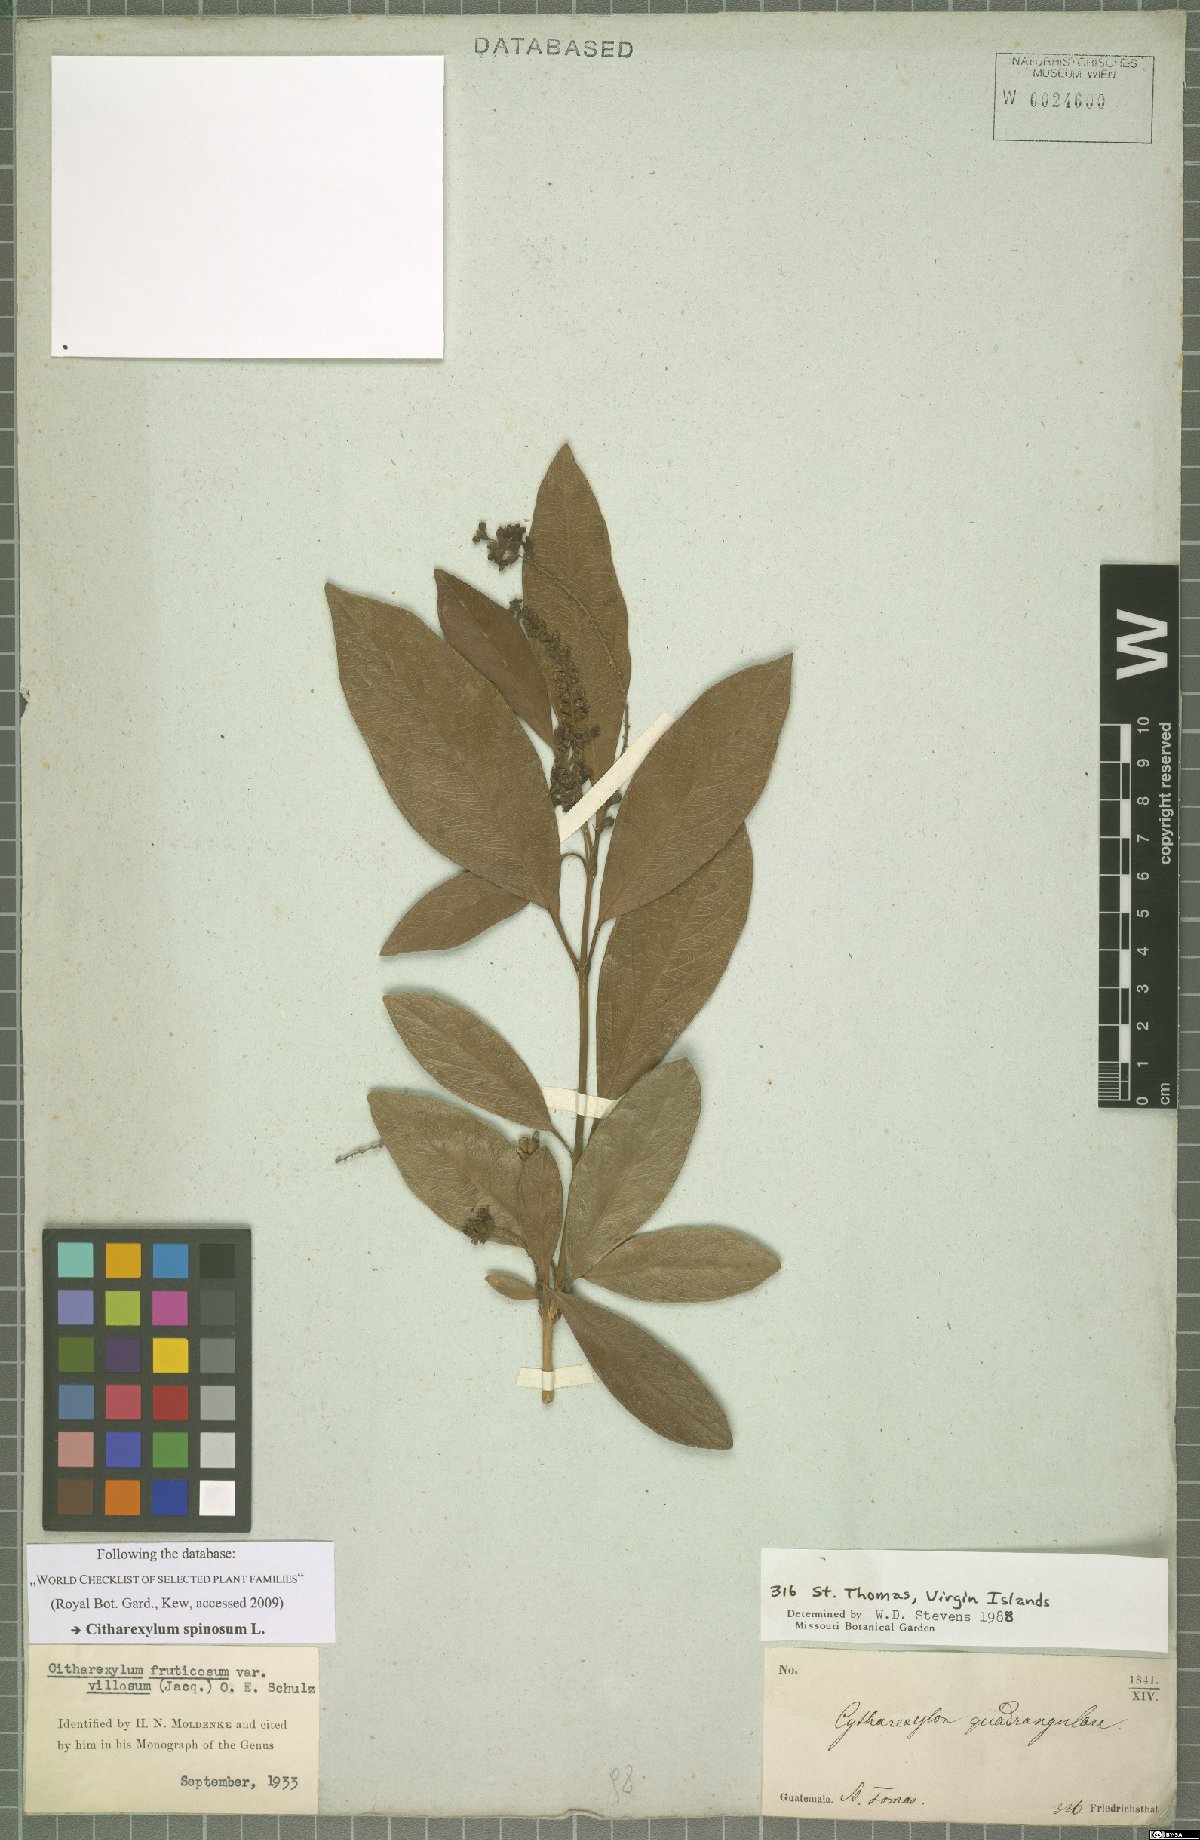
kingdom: Plantae
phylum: Tracheophyta
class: Magnoliopsida
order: Lamiales
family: Verbenaceae
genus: Citharexylum
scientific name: Citharexylum spinosum
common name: Fiddlewood
